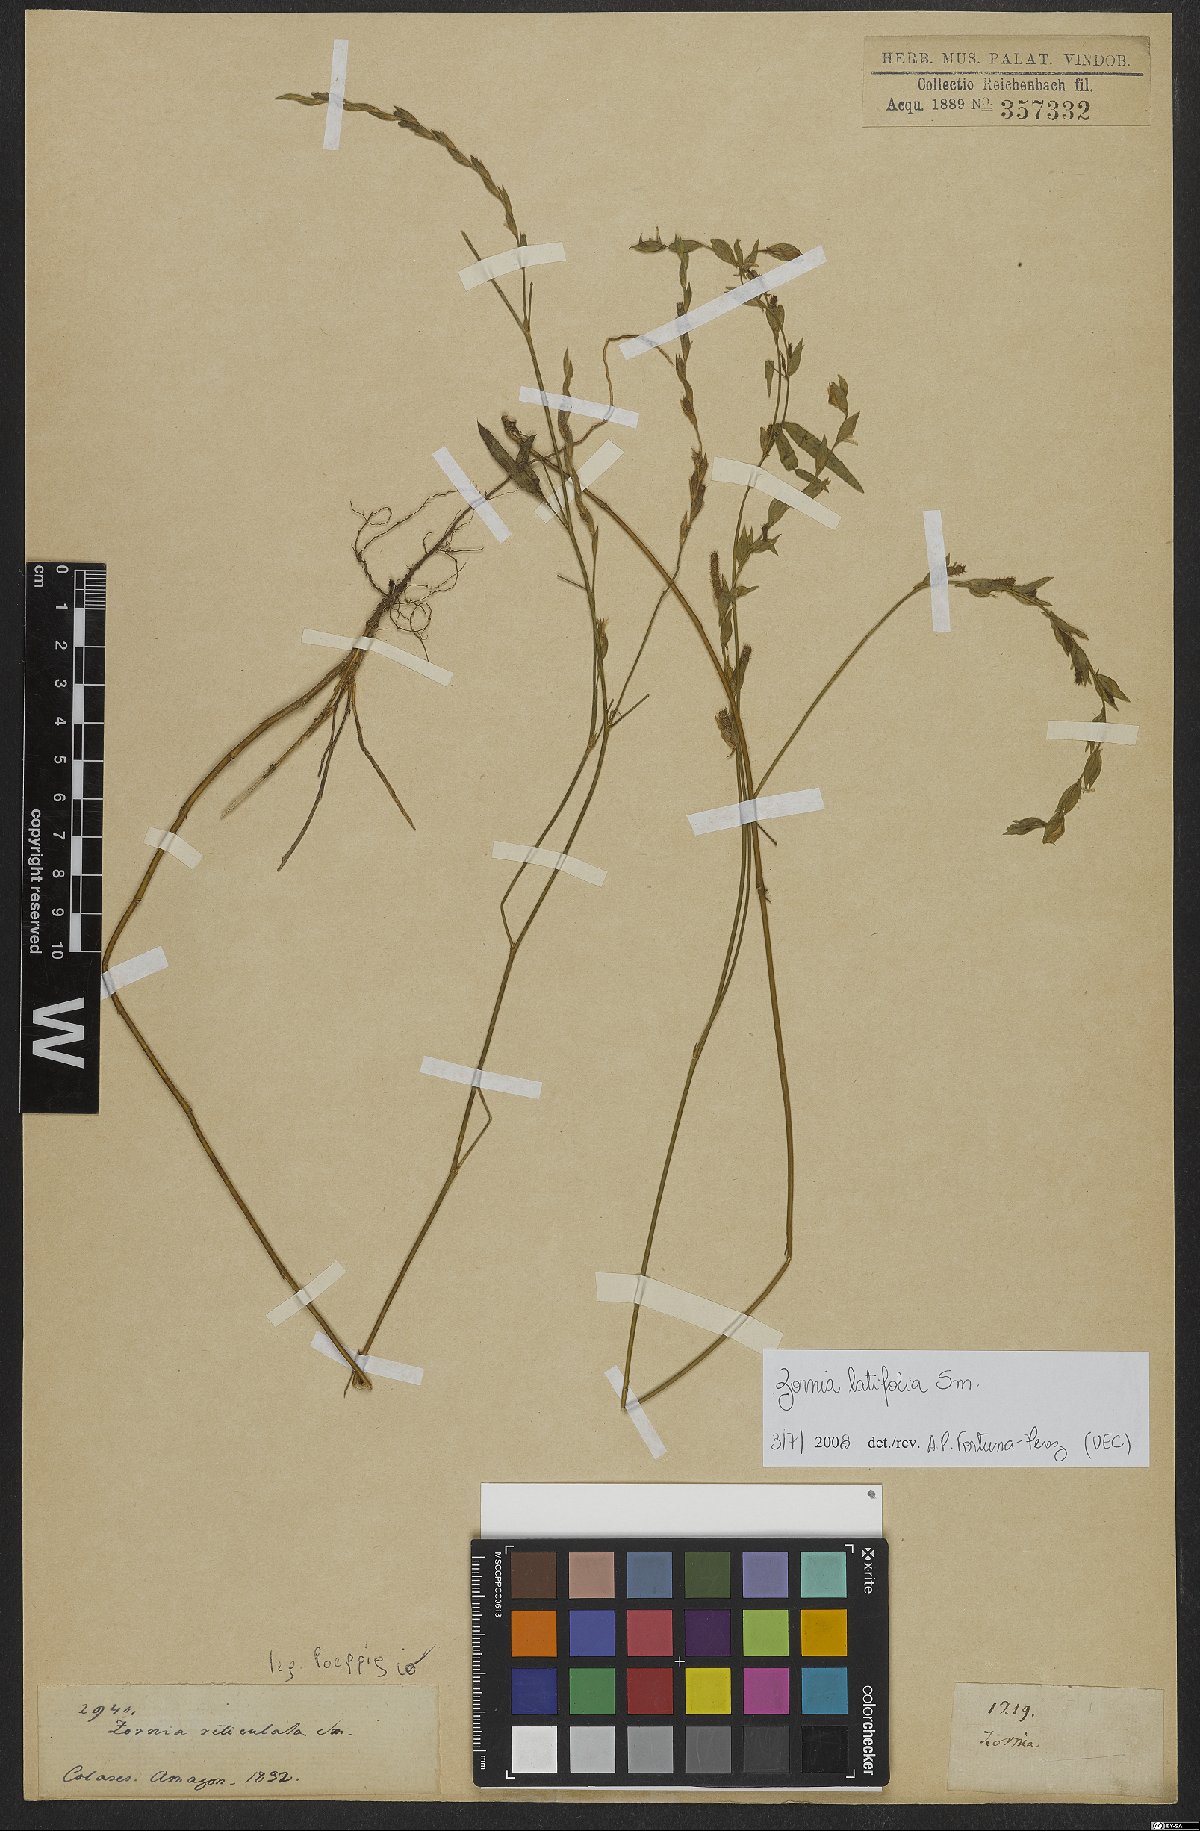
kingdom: Plantae
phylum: Tracheophyta
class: Magnoliopsida
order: Fabales
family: Fabaceae
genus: Zornia
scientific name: Zornia sericea
